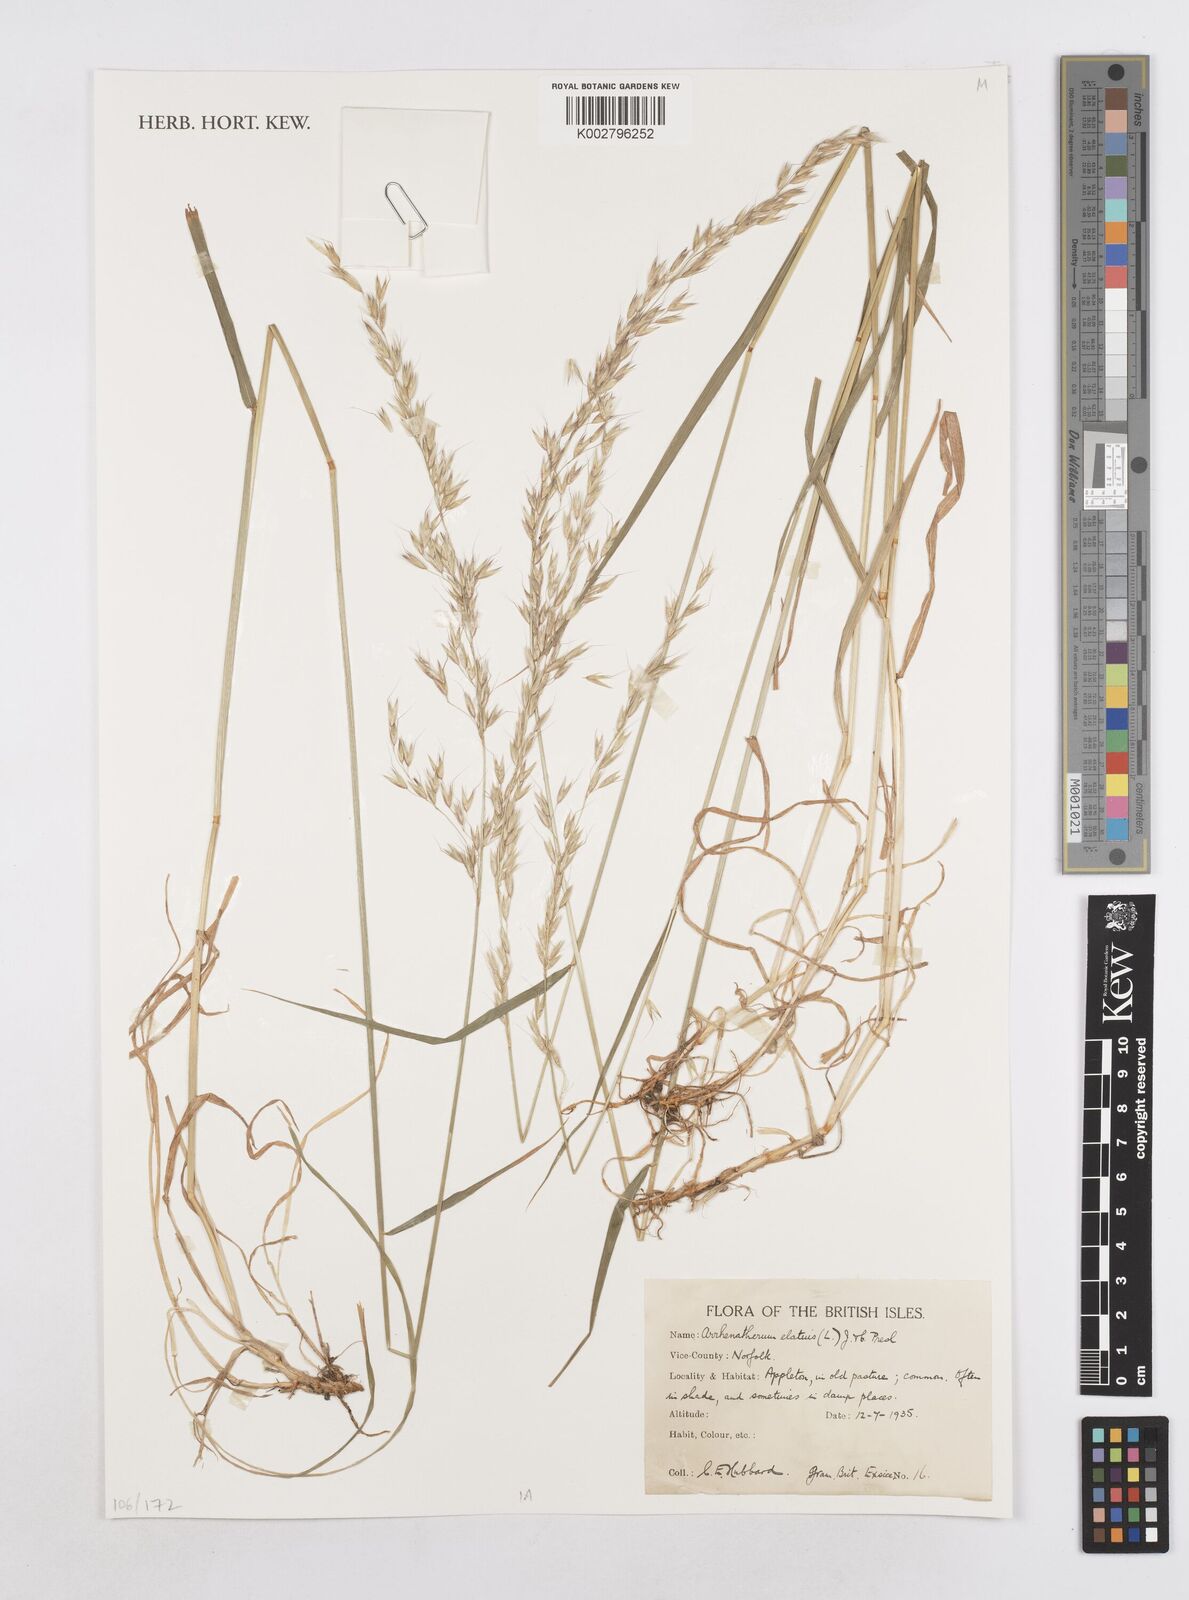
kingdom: Plantae
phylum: Tracheophyta
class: Liliopsida
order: Poales
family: Poaceae
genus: Arrhenatherum
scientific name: Arrhenatherum elatius
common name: Tall oatgrass
